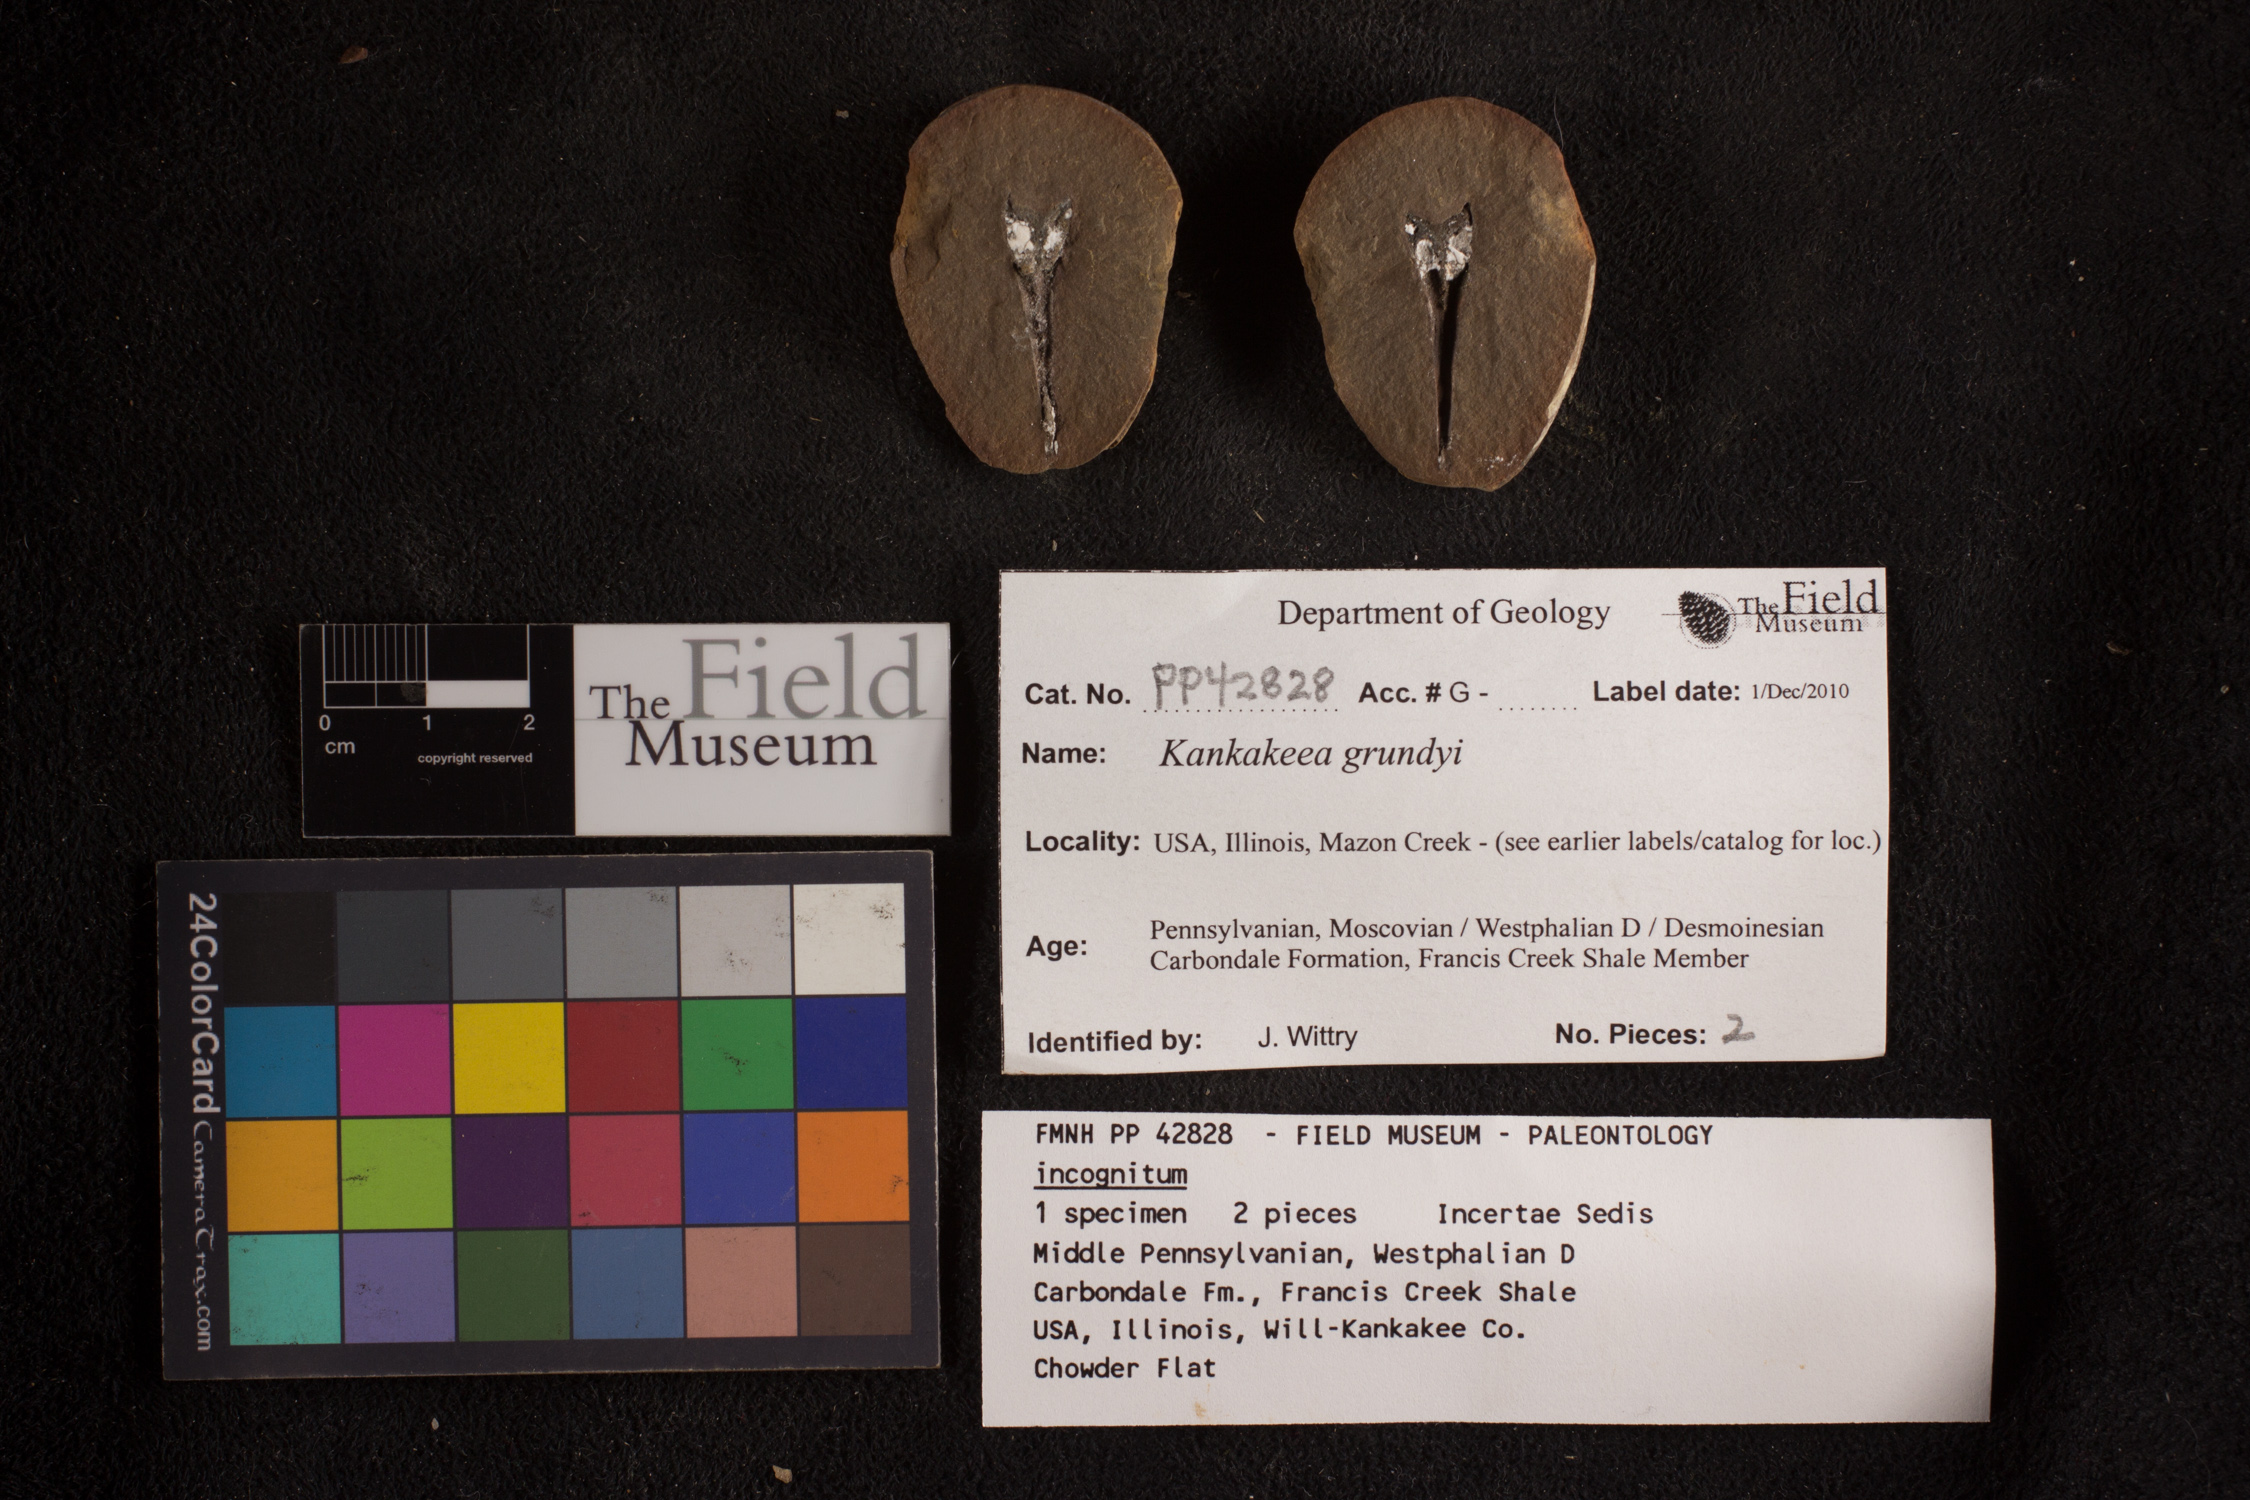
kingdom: Plantae
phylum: Tracheophyta
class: Polypodiopsida
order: Marattiales
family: Marattiaceae
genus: Kankakeea
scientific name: Kankakeea grundyi
